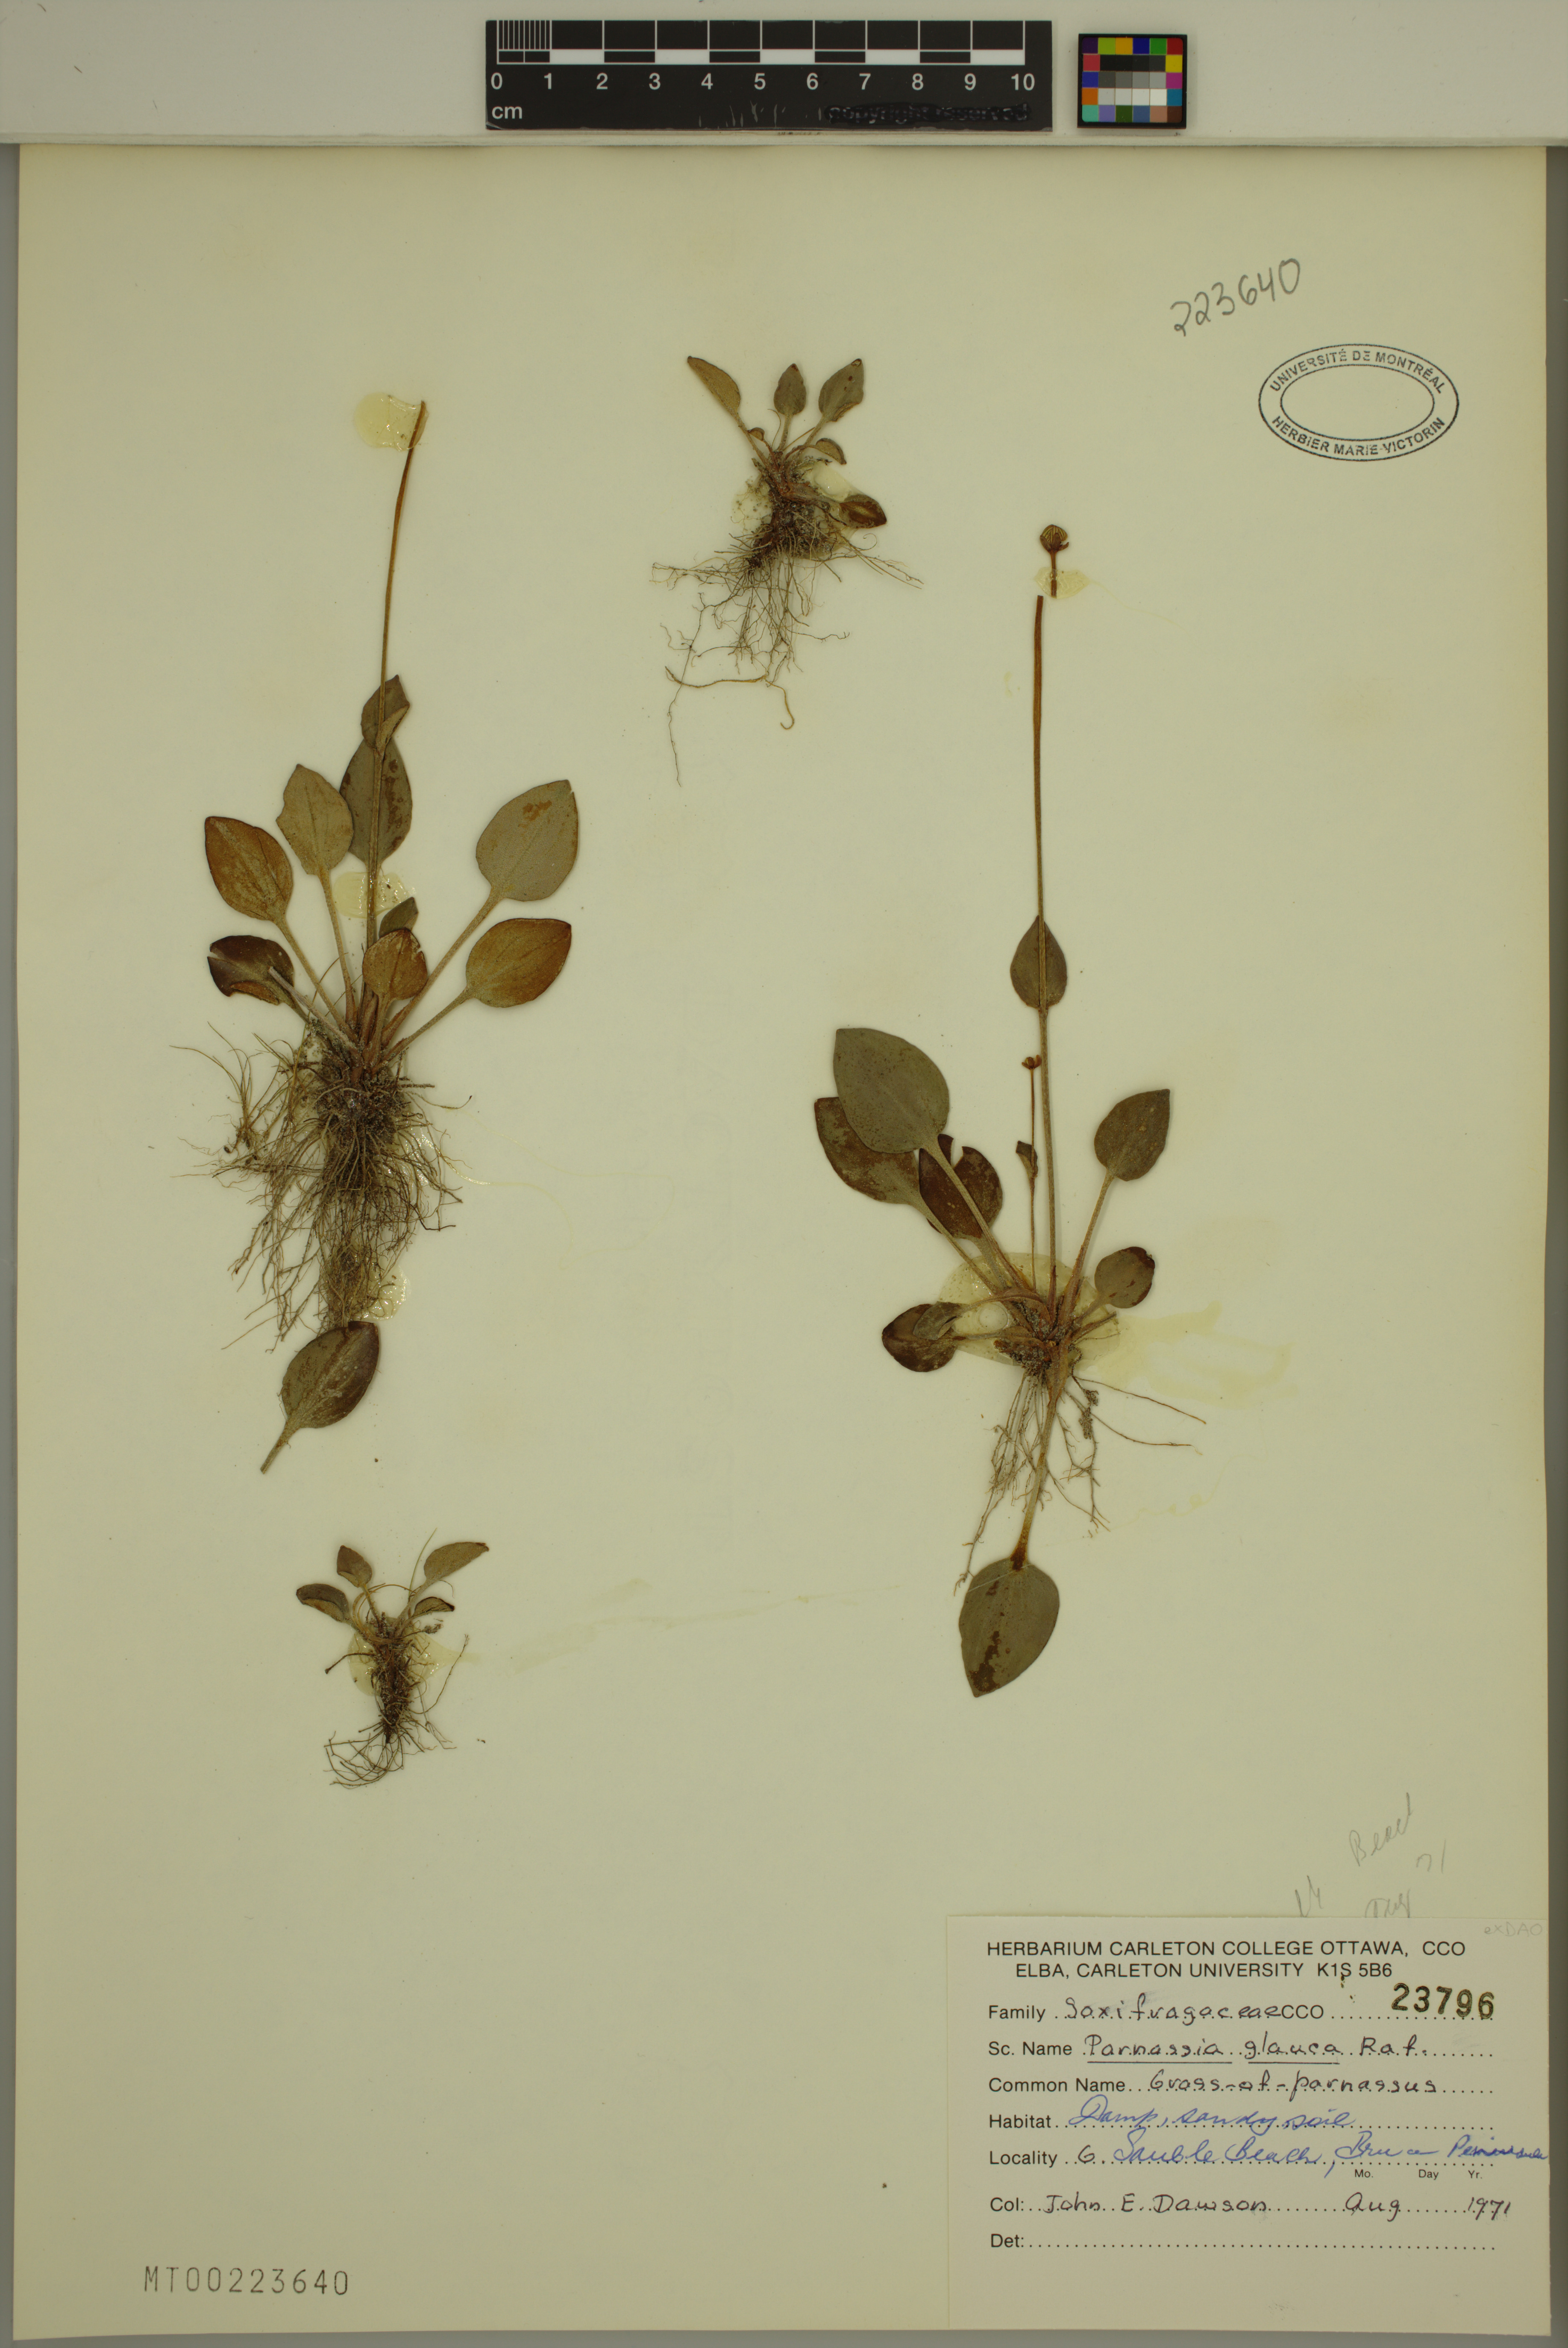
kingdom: Plantae
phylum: Tracheophyta
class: Magnoliopsida
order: Celastrales
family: Parnassiaceae
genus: Parnassia
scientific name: Parnassia glauca
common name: American grass-of-parnassus
